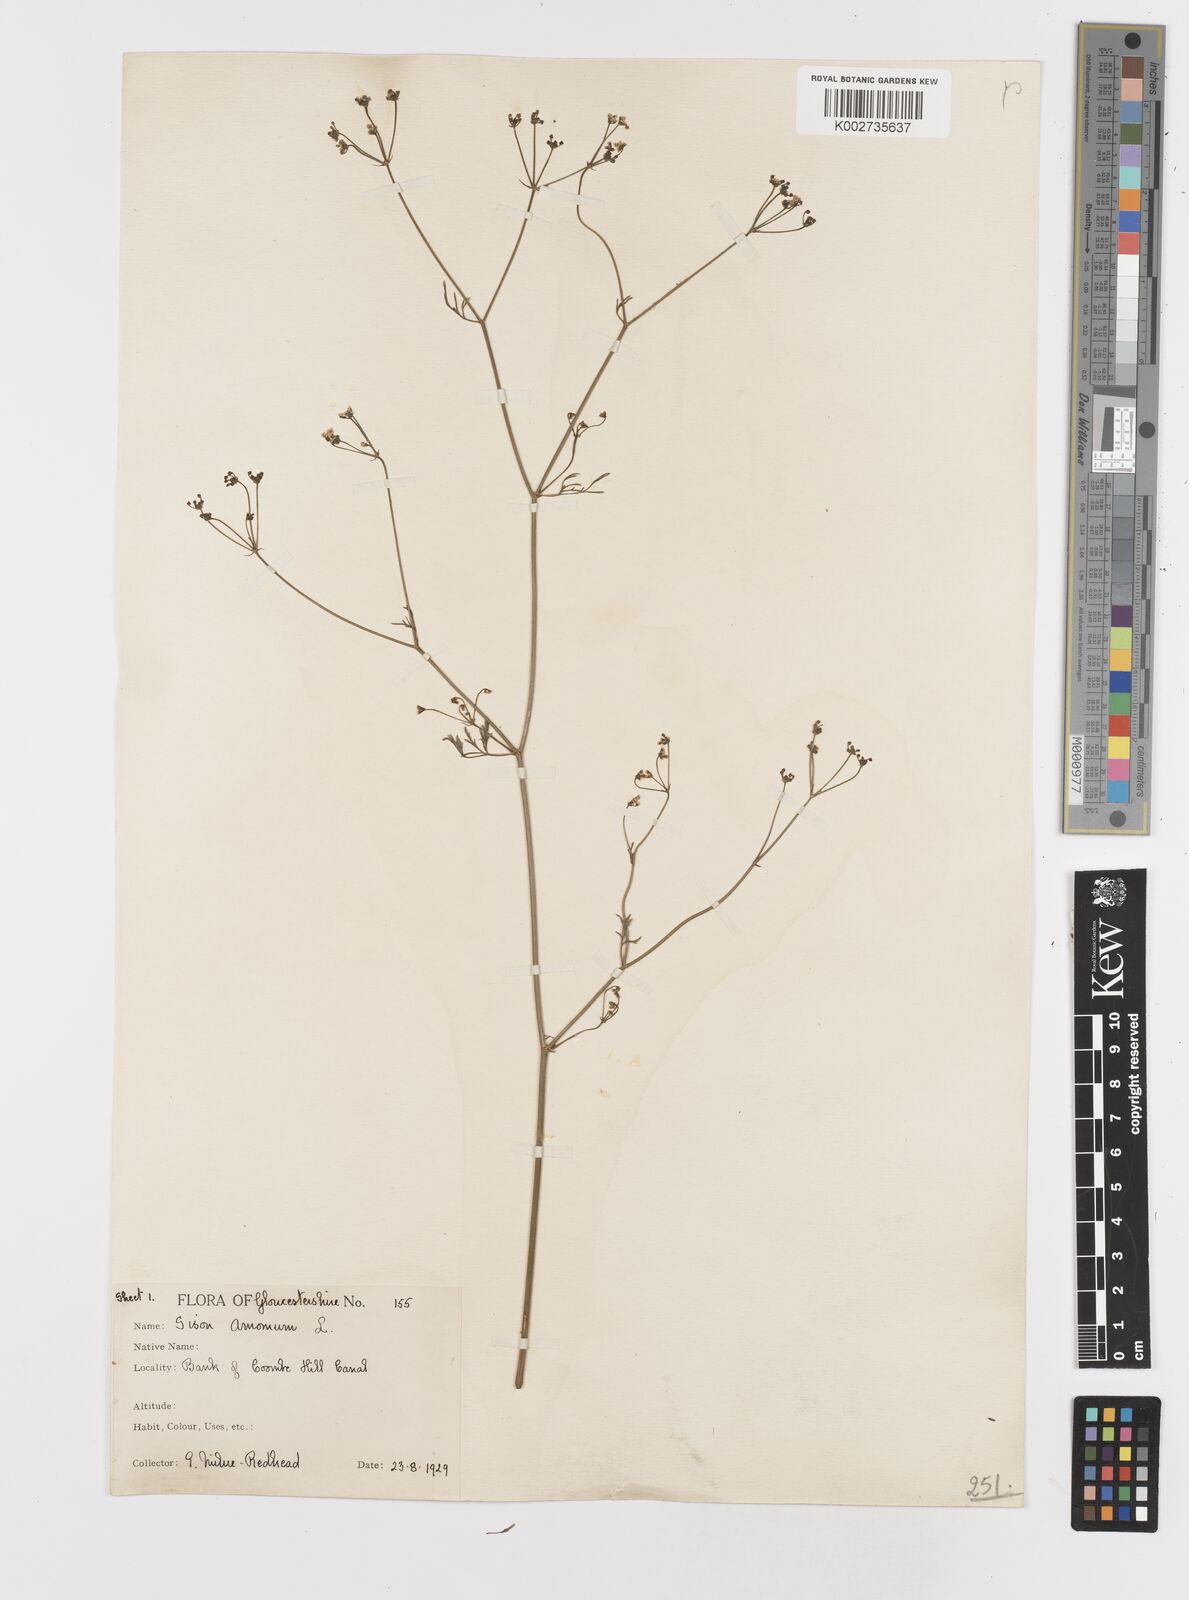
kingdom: Plantae
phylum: Tracheophyta
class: Magnoliopsida
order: Apiales
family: Apiaceae
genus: Sison
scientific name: Sison amomum
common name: Stone-parsley
